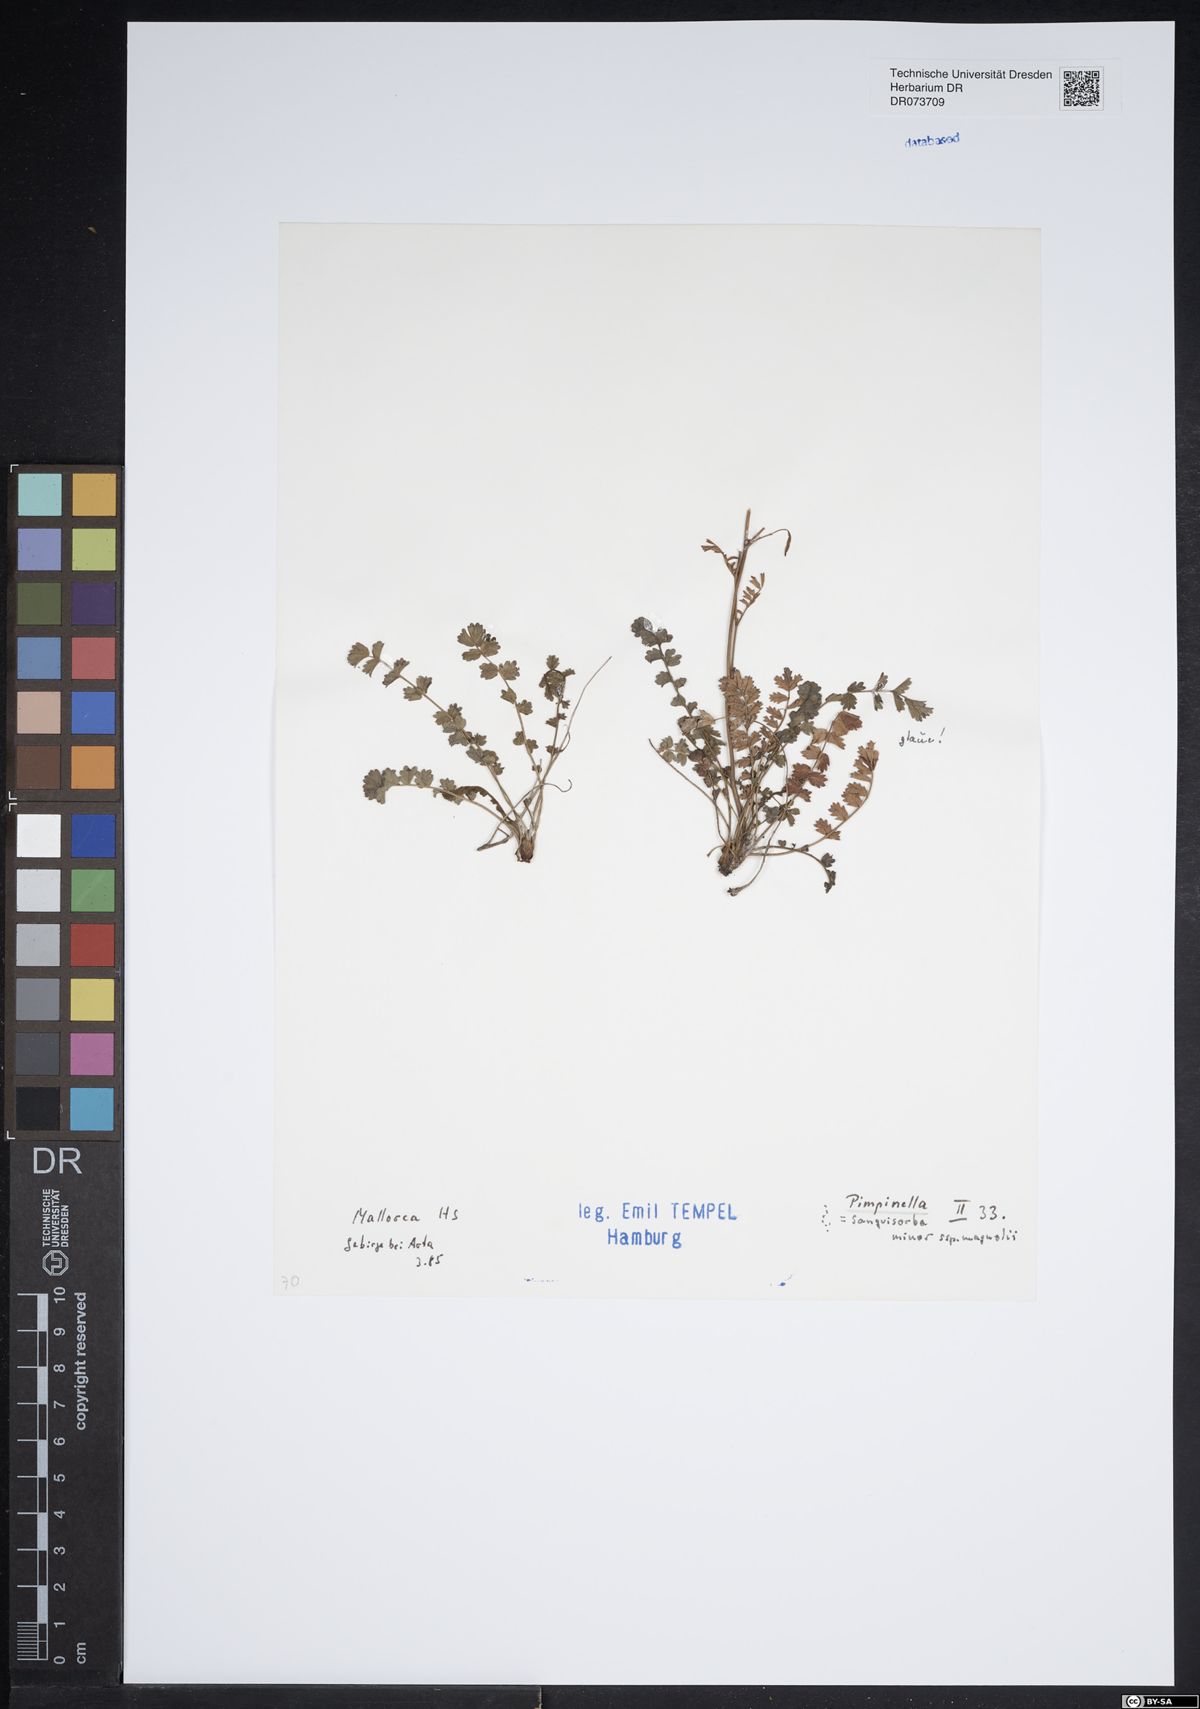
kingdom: Plantae
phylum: Tracheophyta
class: Magnoliopsida
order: Apiales
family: Apiaceae
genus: Pimpinella
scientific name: Pimpinella
